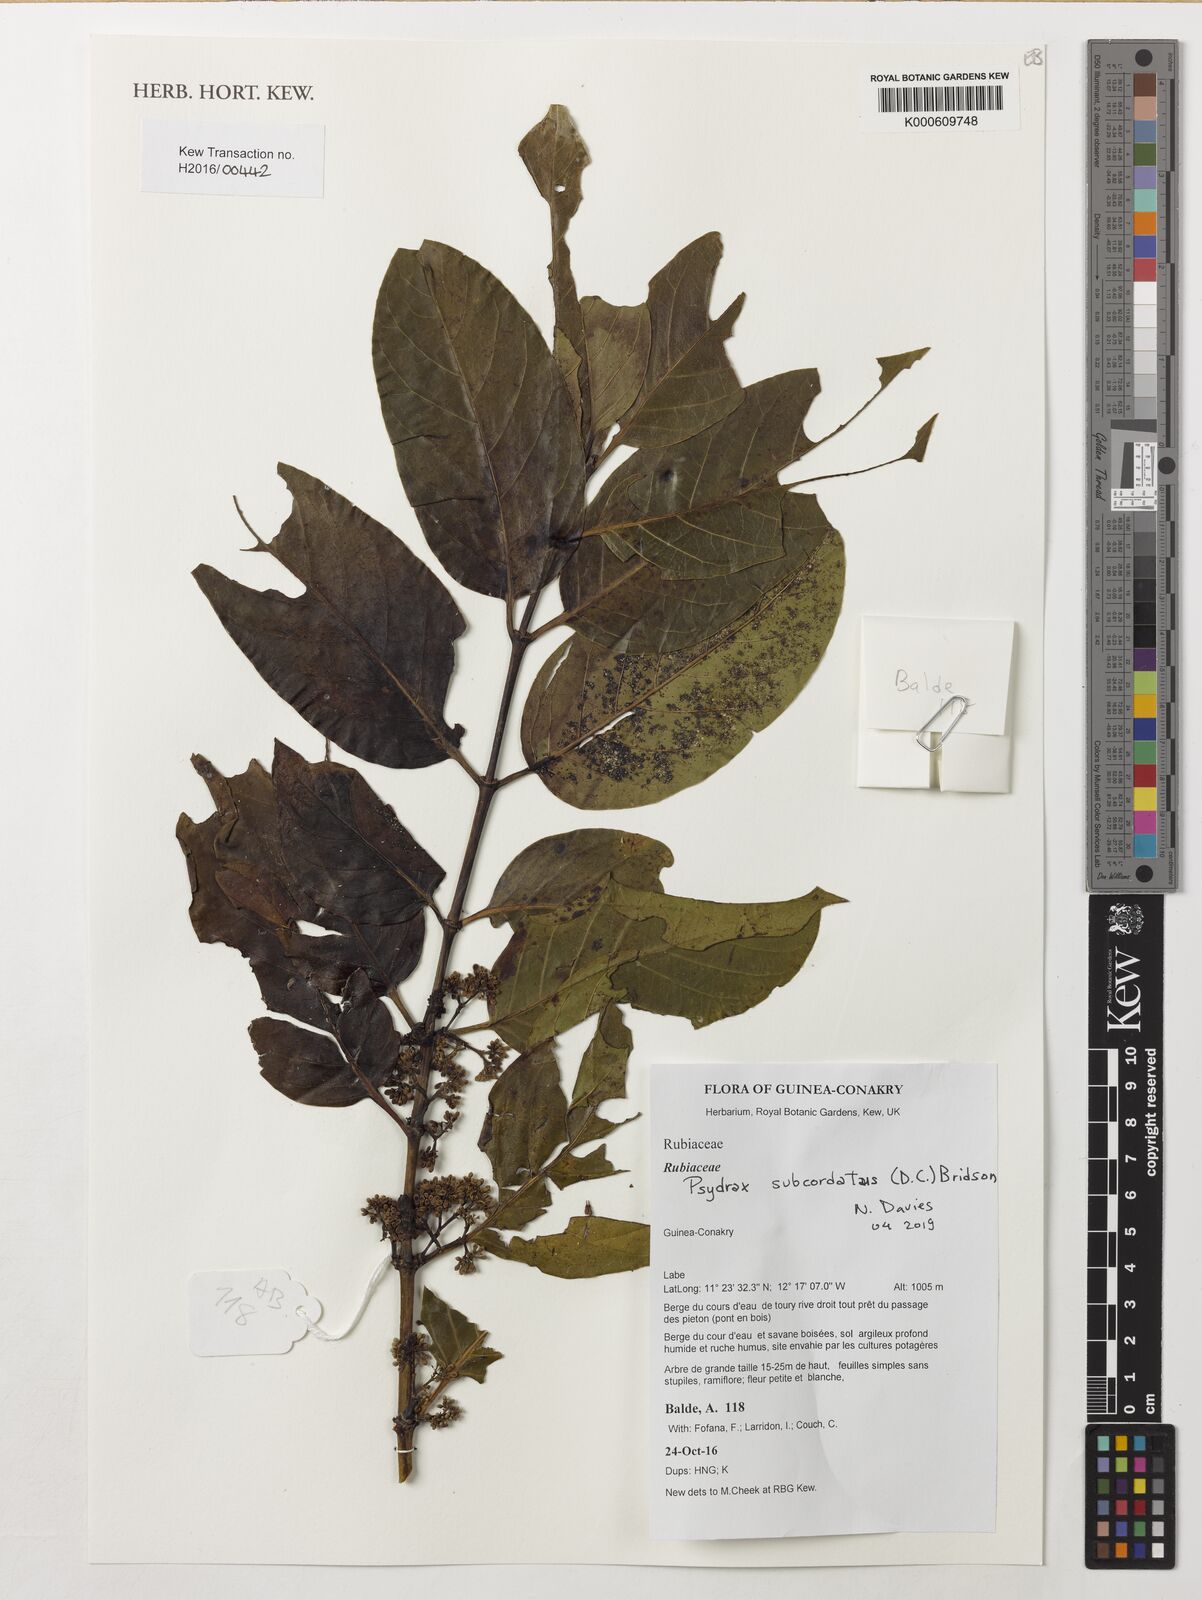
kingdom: Plantae
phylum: Tracheophyta
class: Magnoliopsida
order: Gentianales
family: Rubiaceae
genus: Psydrax
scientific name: Psydrax subcordatus
